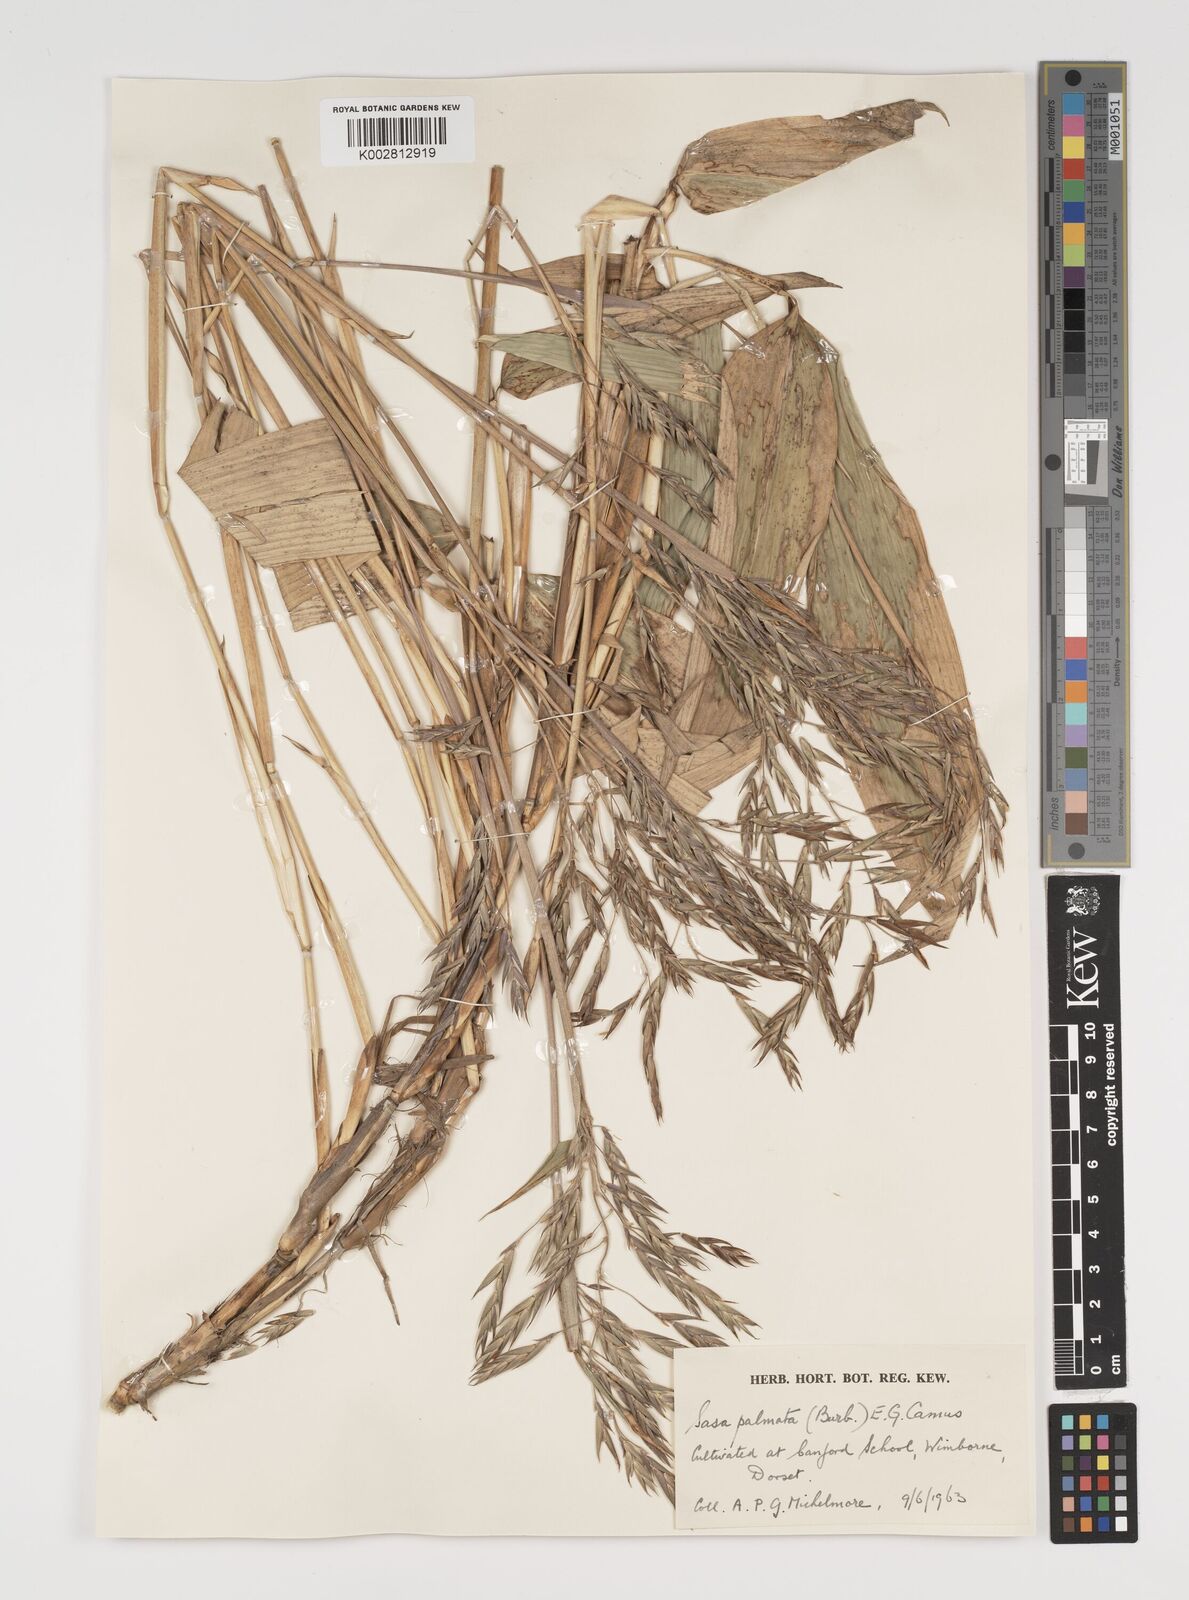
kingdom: Plantae
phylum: Tracheophyta
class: Liliopsida
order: Poales
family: Poaceae
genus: Sasa
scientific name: Sasa palmata
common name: Broad-leaved bamboo
